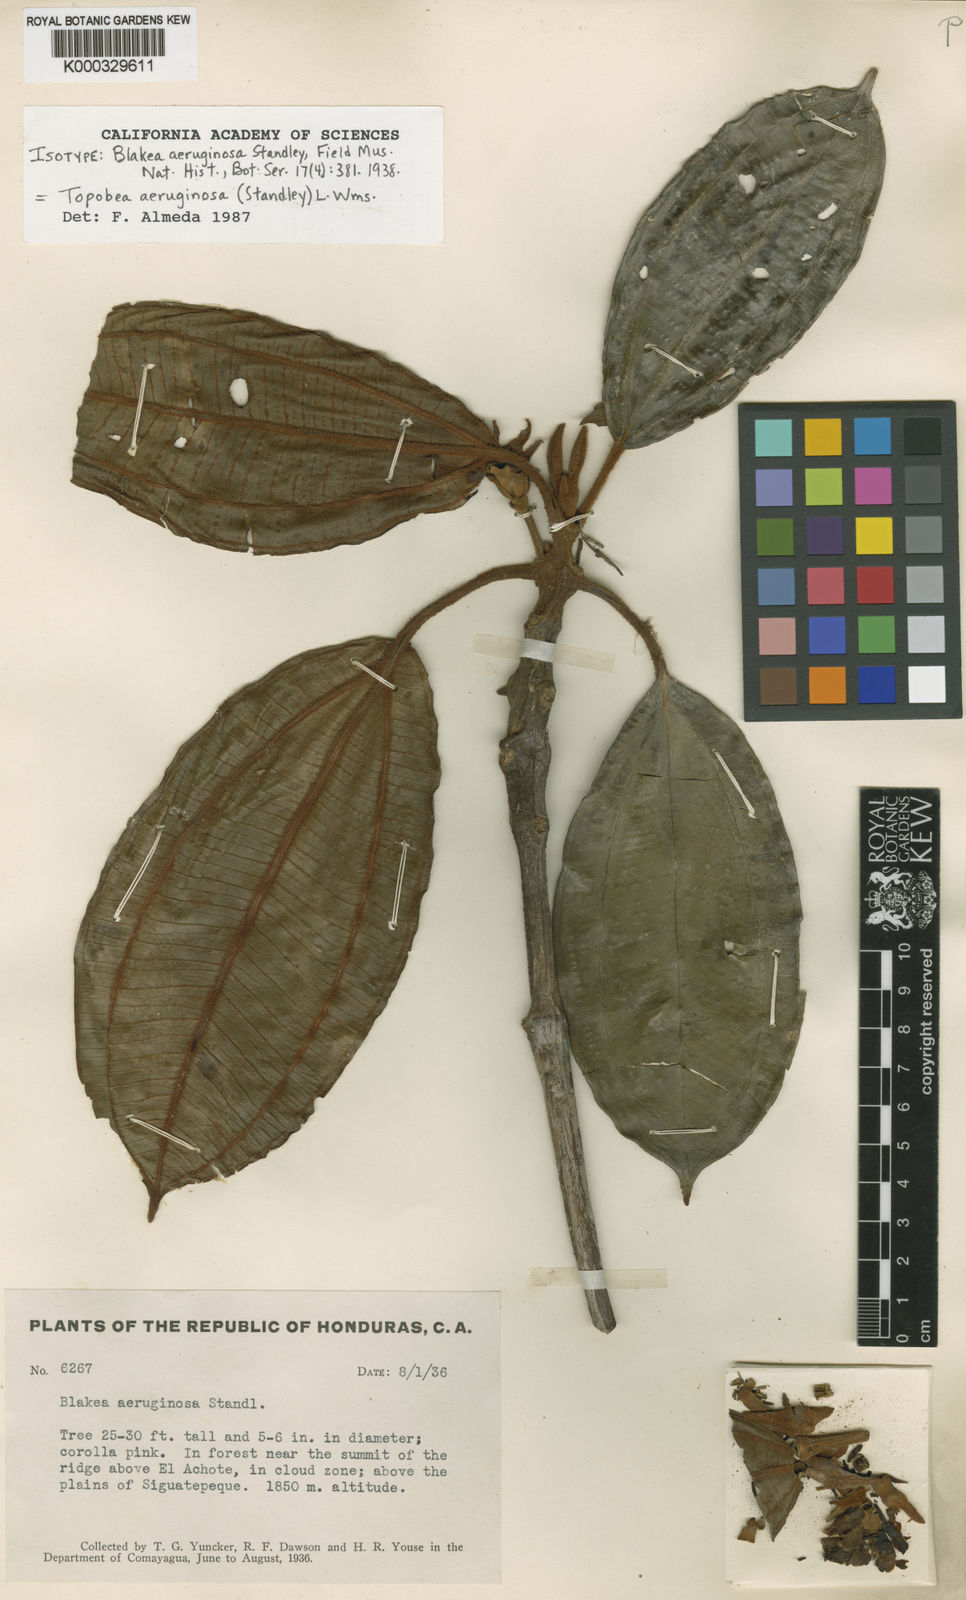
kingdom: Plantae
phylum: Tracheophyta
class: Magnoliopsida
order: Myrtales
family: Melastomataceae
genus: Blakea
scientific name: Blakea aeruginosa
